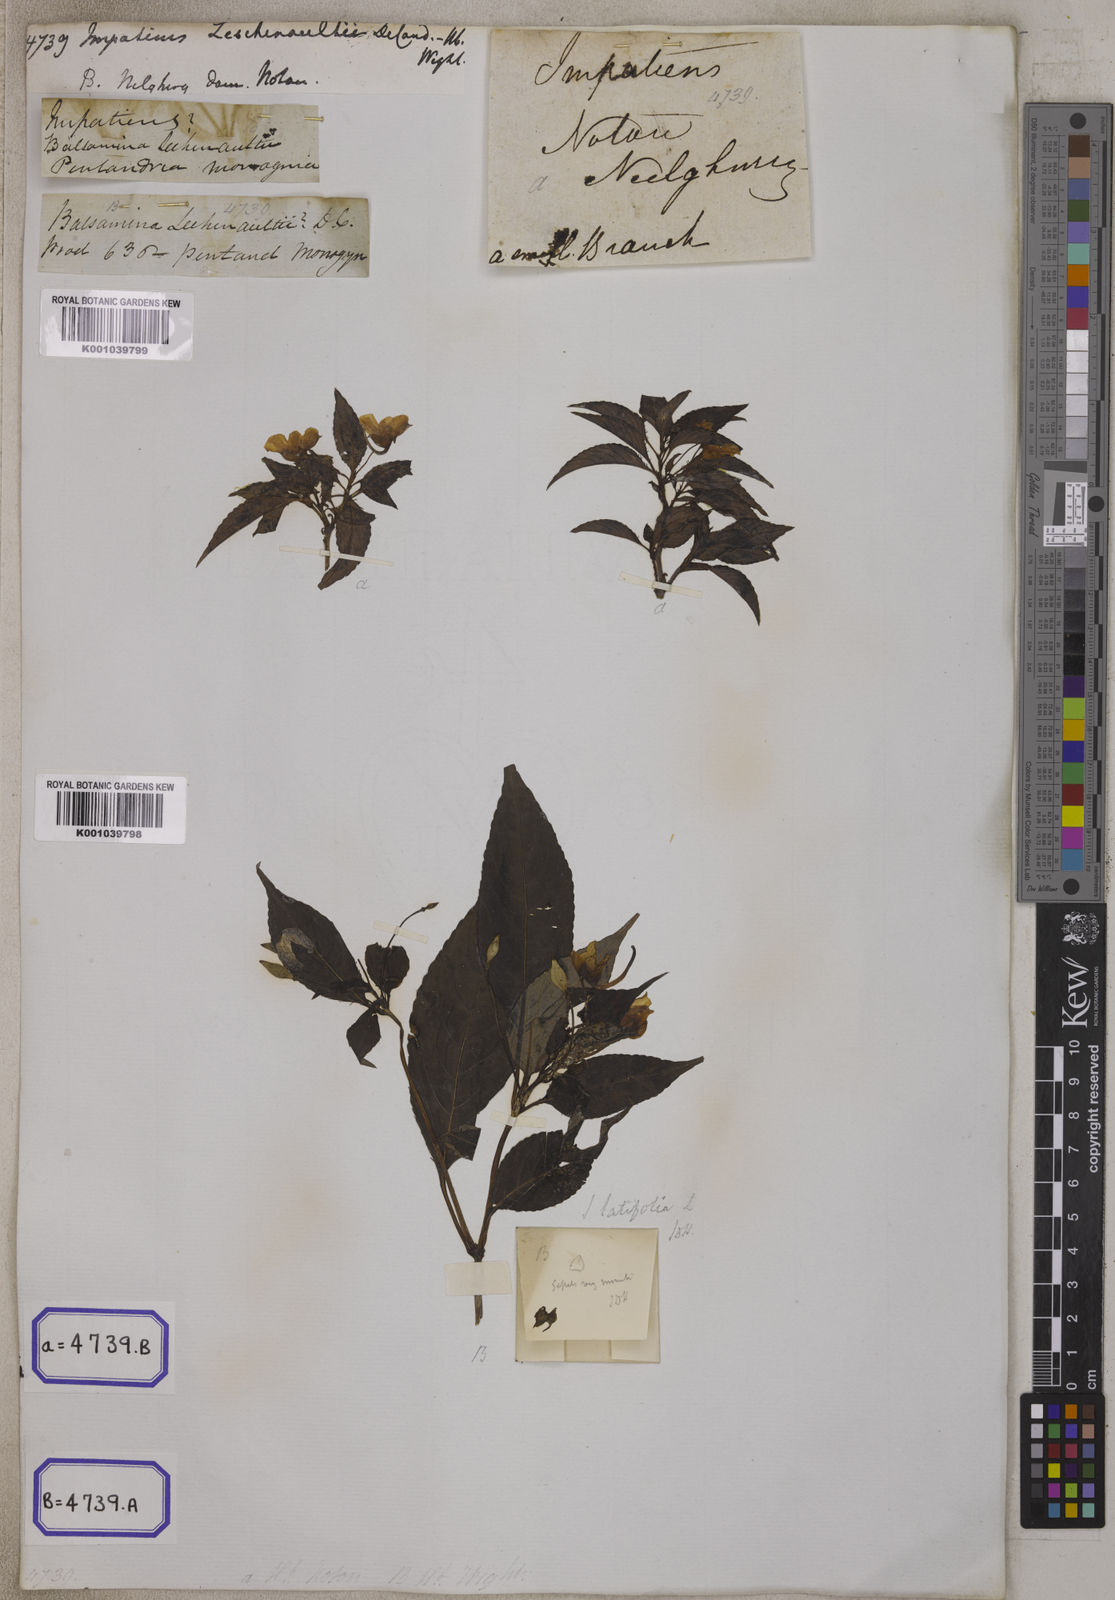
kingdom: Plantae
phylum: Tracheophyta
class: Magnoliopsida
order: Ericales
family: Balsaminaceae
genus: Impatiens
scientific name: Impatiens leschenaultii
